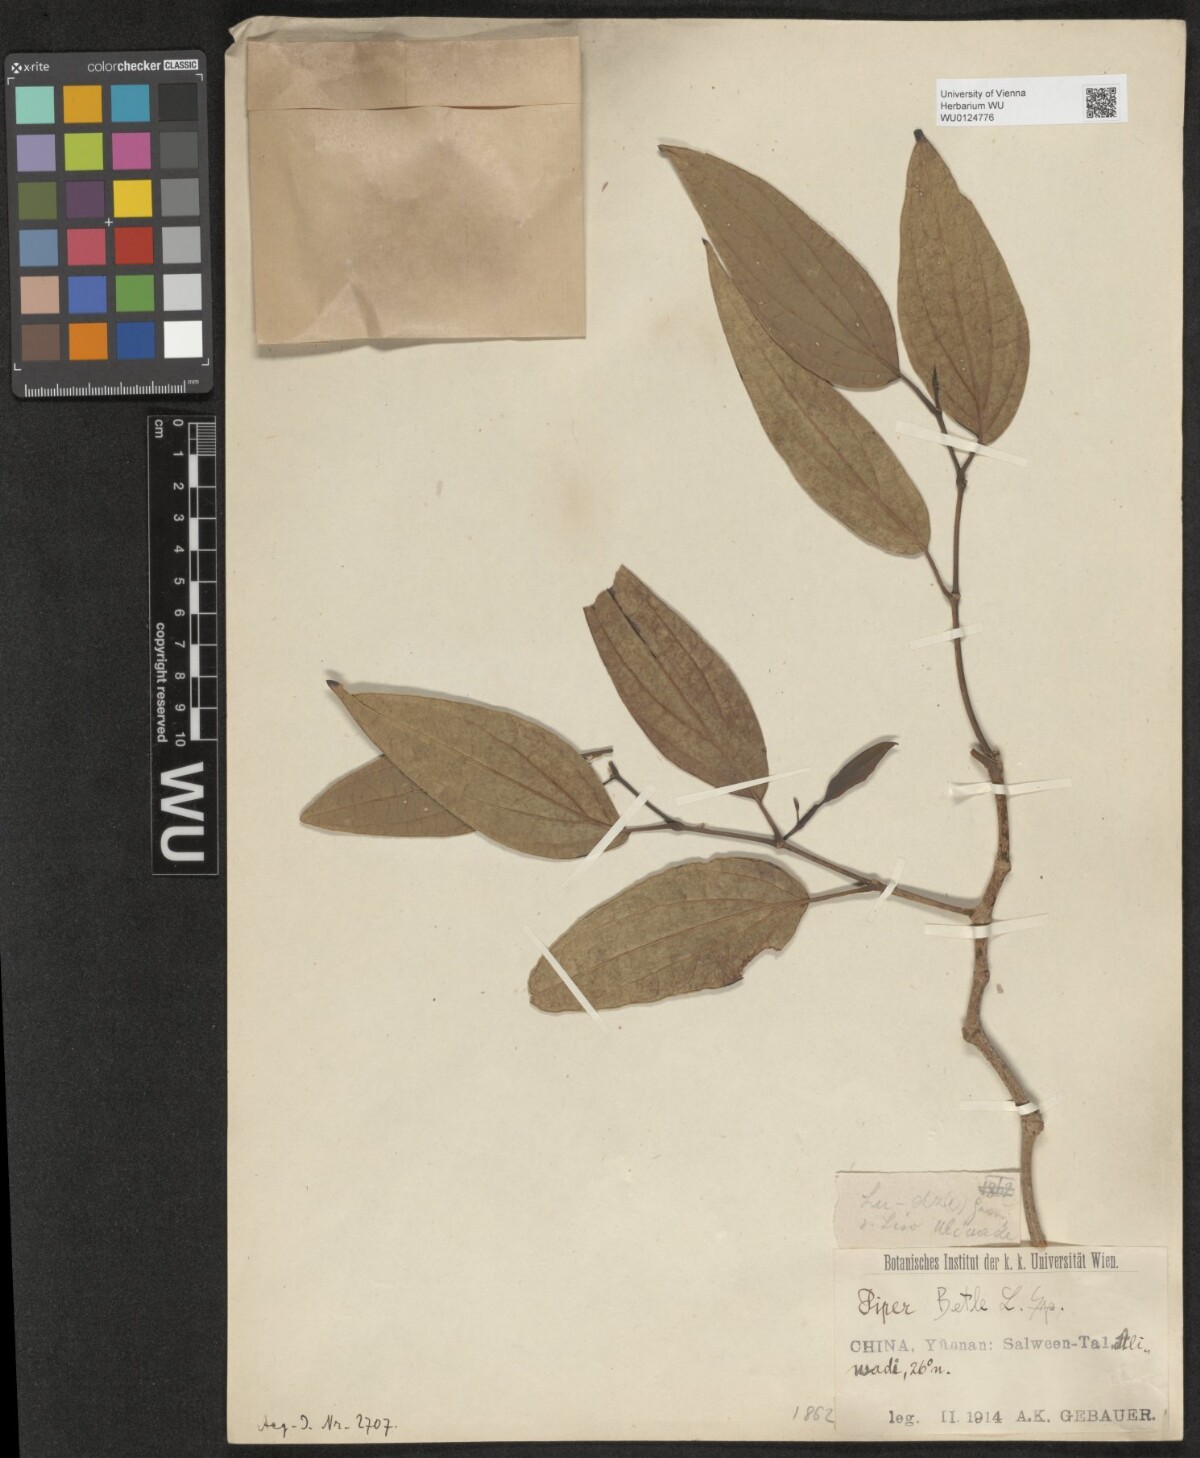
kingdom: Plantae
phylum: Tracheophyta
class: Magnoliopsida
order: Piperales
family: Piperaceae
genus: Piper
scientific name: Piper austrosinense
